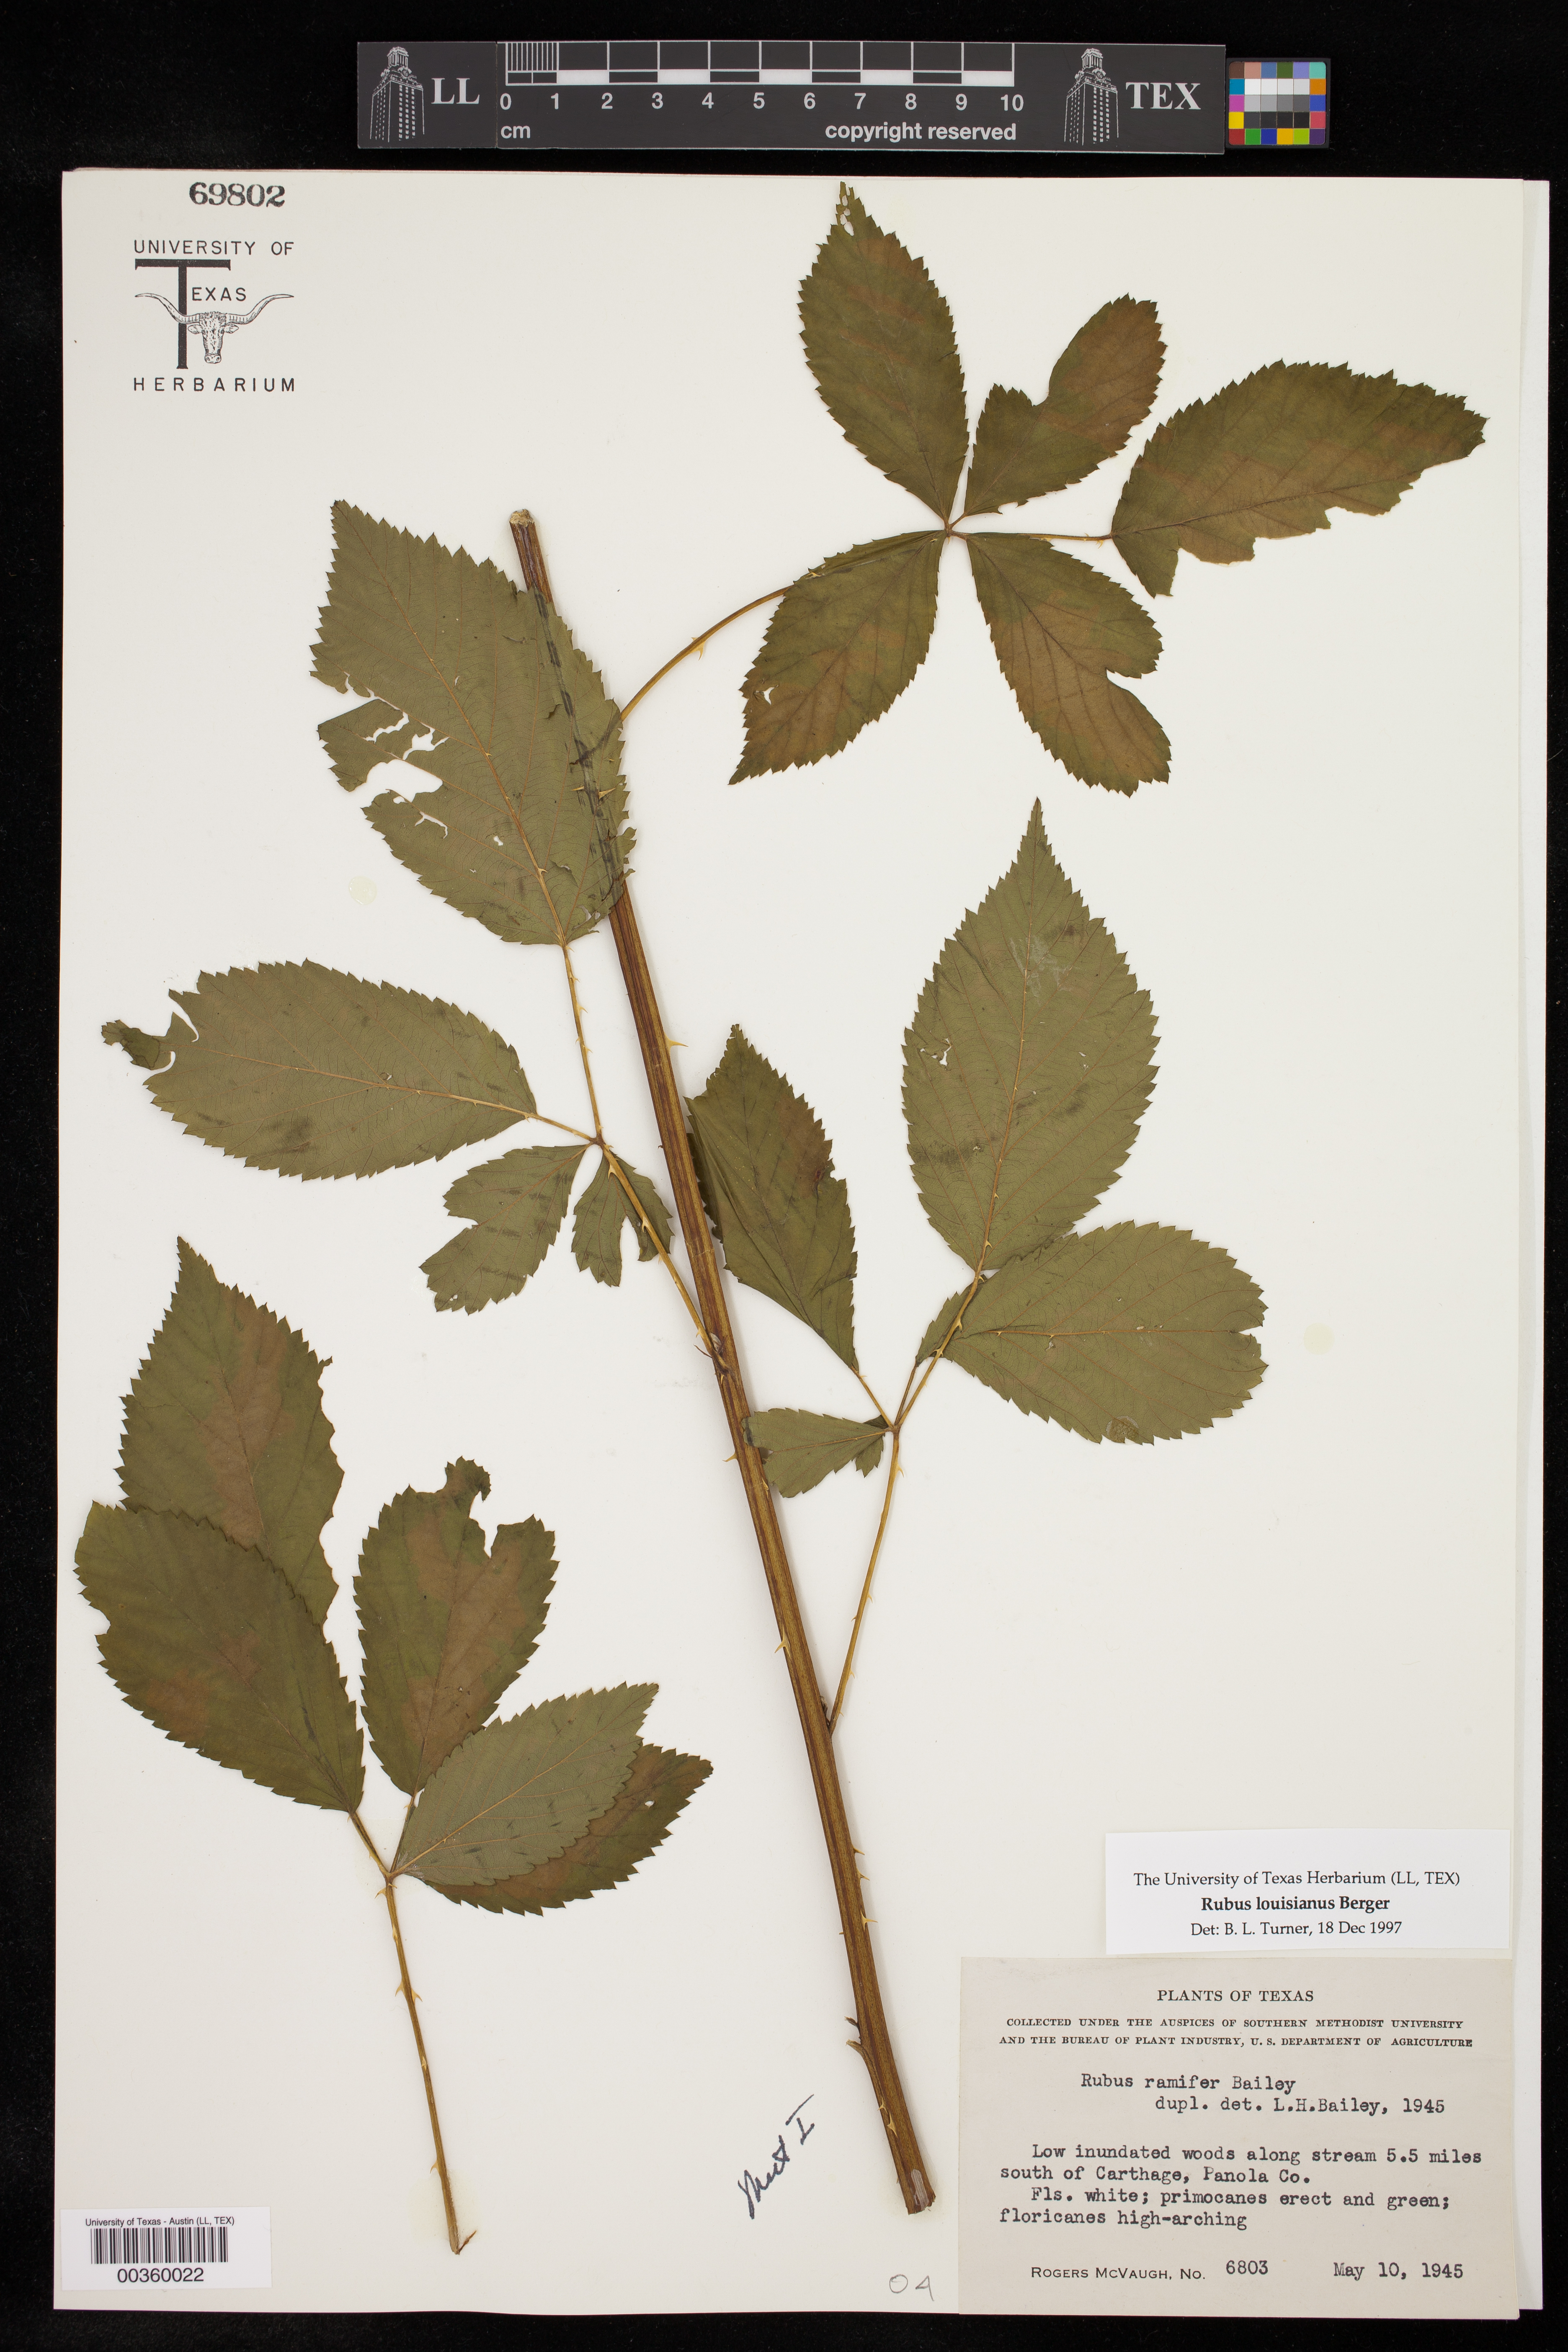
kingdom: Plantae
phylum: Tracheophyta
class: Magnoliopsida
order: Rosales
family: Rosaceae
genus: Rubus
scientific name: Rubus argutus
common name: Sawtooth blackberry
